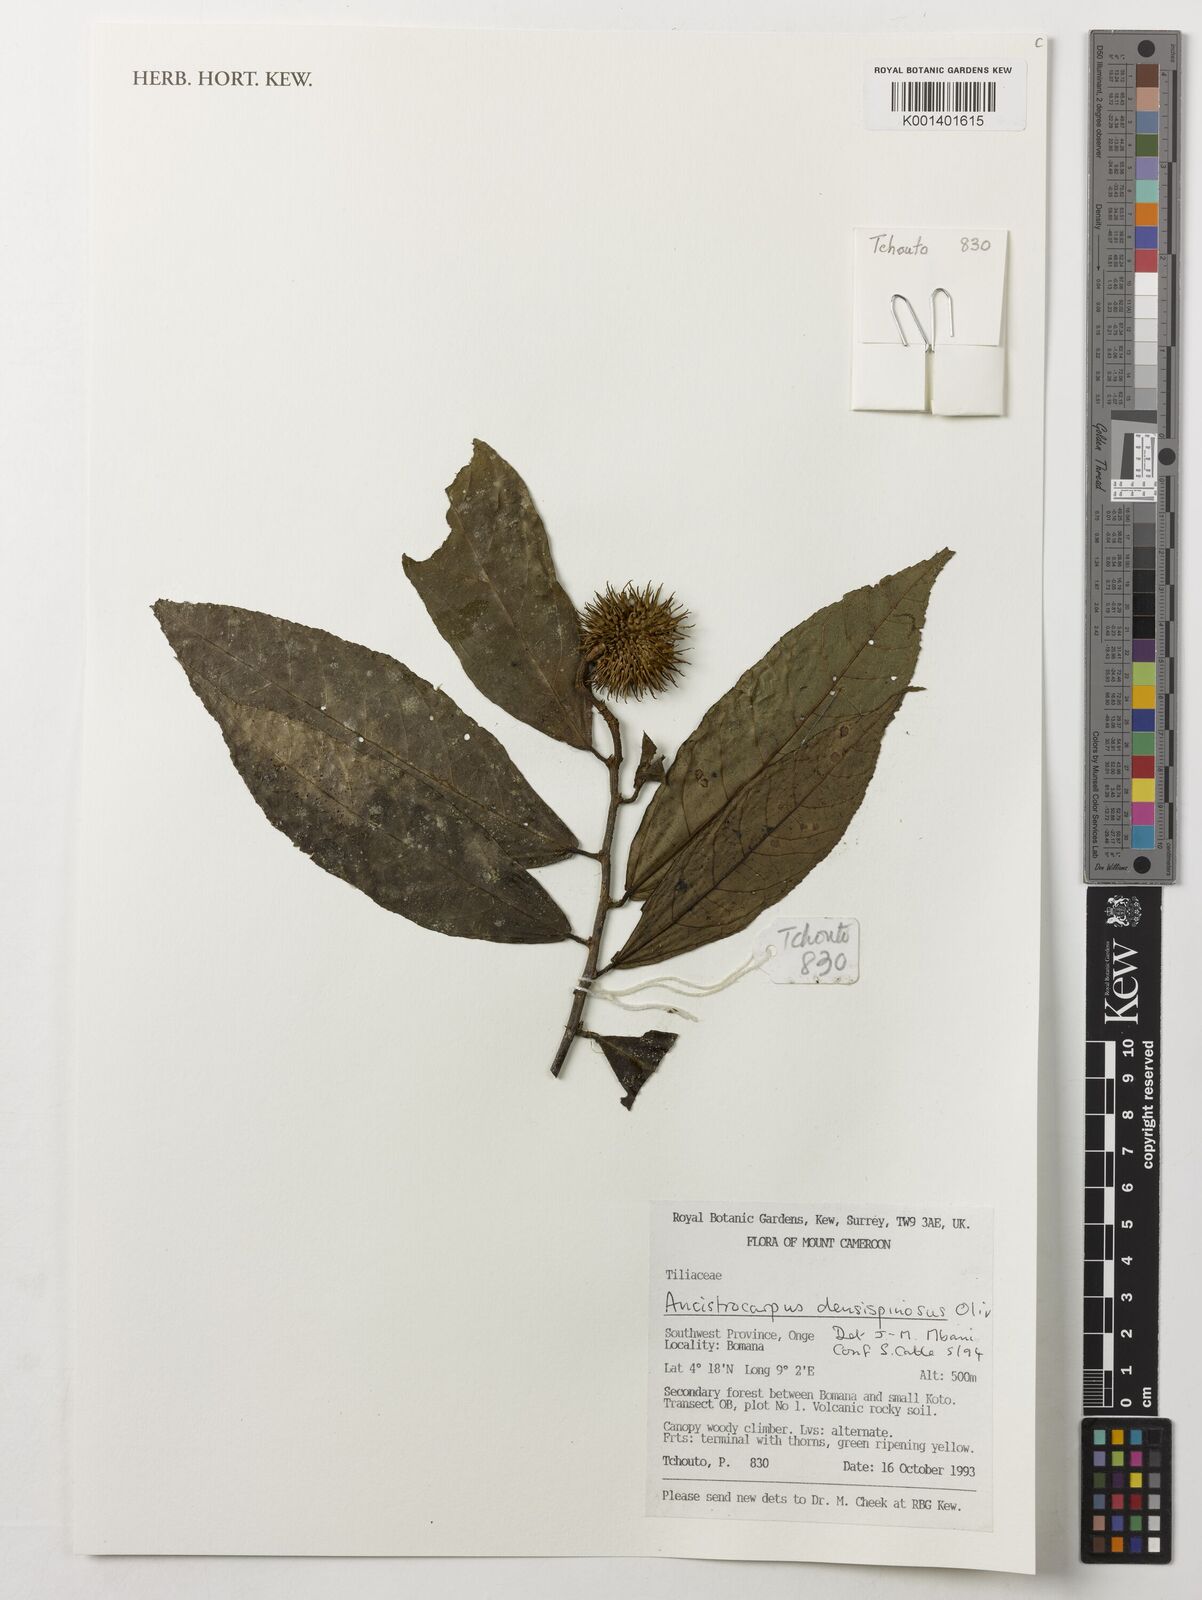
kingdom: Plantae
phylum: Tracheophyta
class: Magnoliopsida
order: Malvales
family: Malvaceae
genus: Ancistrocarpus
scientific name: Ancistrocarpus densispinosus
